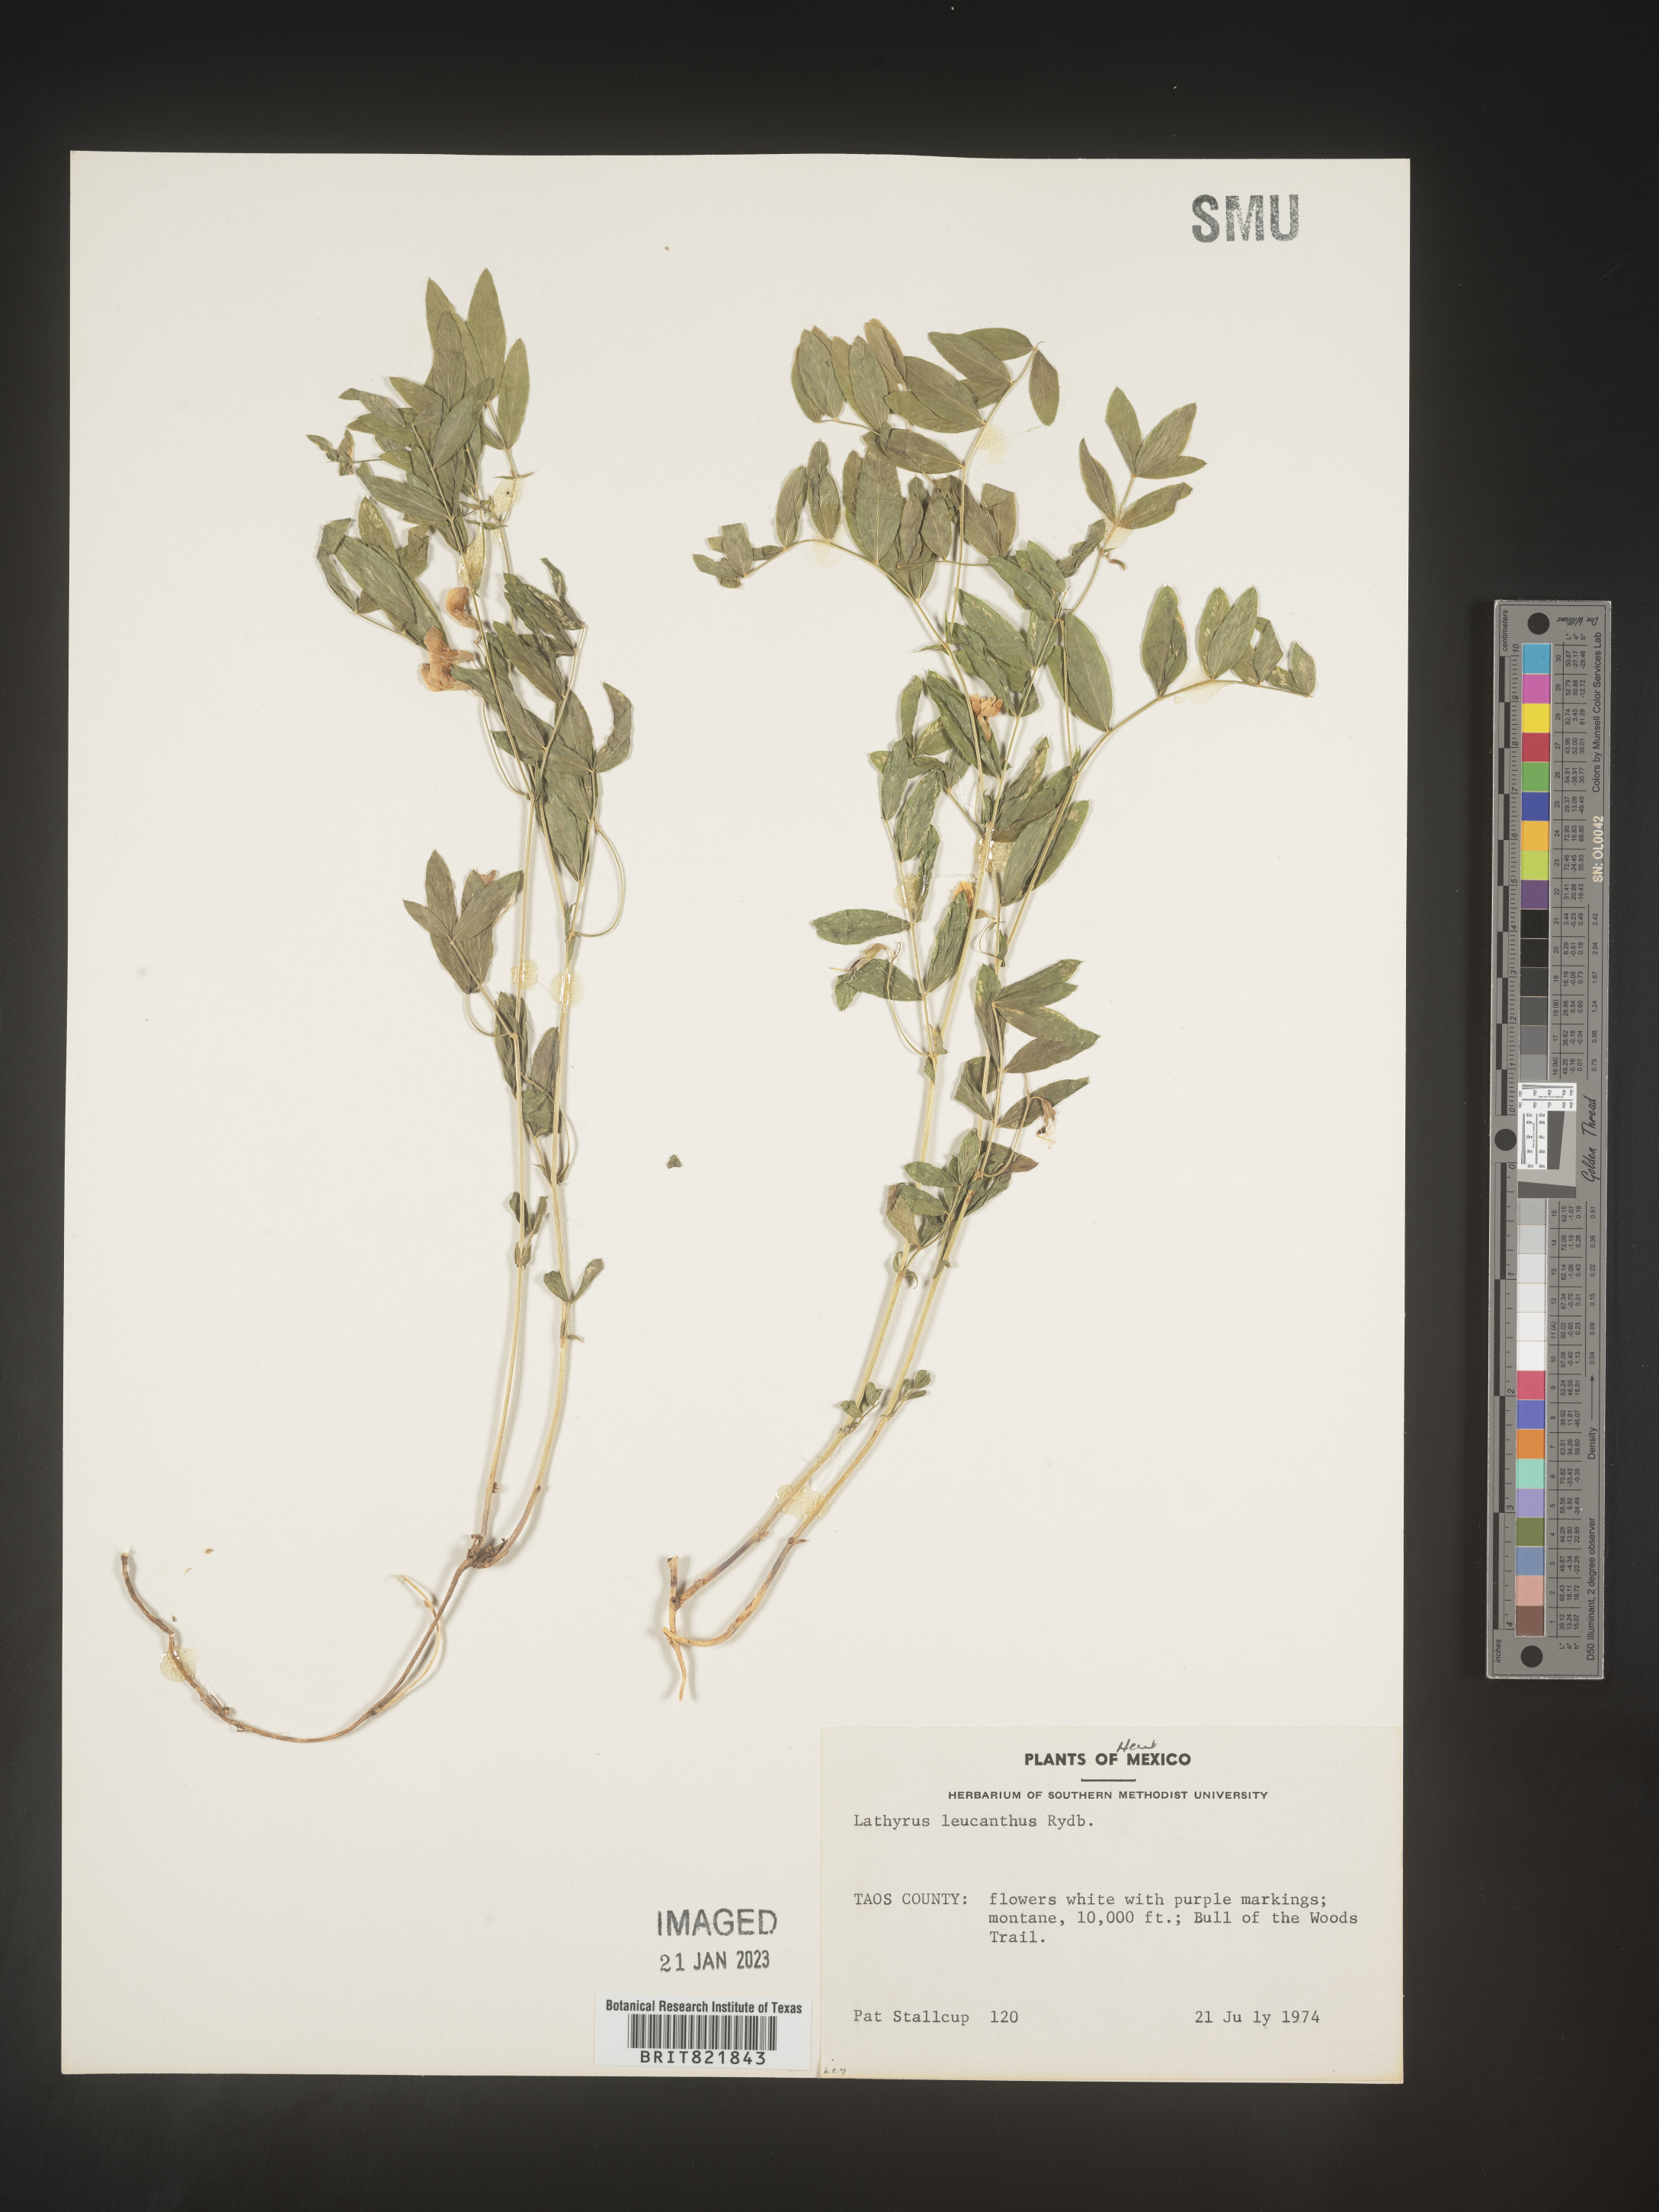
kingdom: Plantae
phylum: Tracheophyta
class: Magnoliopsida
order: Fabales
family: Fabaceae
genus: Lathyrus
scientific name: Lathyrus
